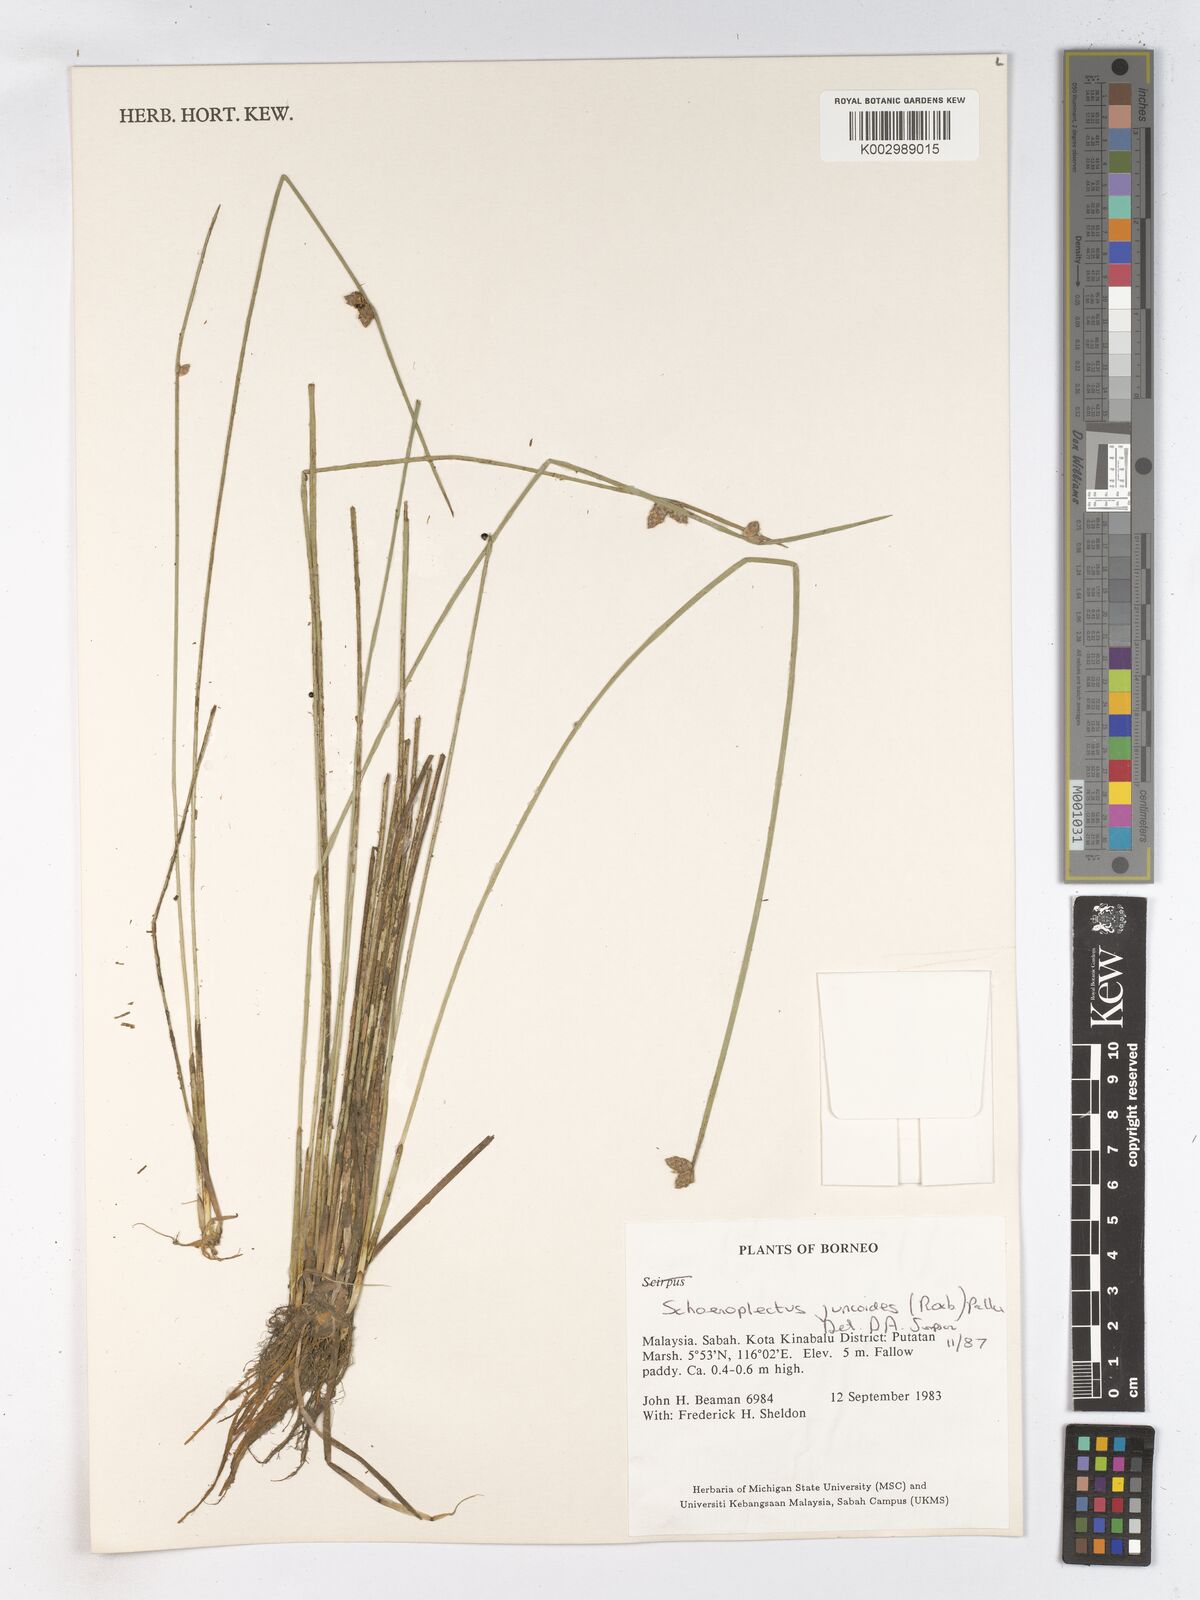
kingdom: Plantae
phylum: Tracheophyta
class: Liliopsida
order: Poales
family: Cyperaceae
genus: Schoenoplectiella
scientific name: Schoenoplectiella juncoides
